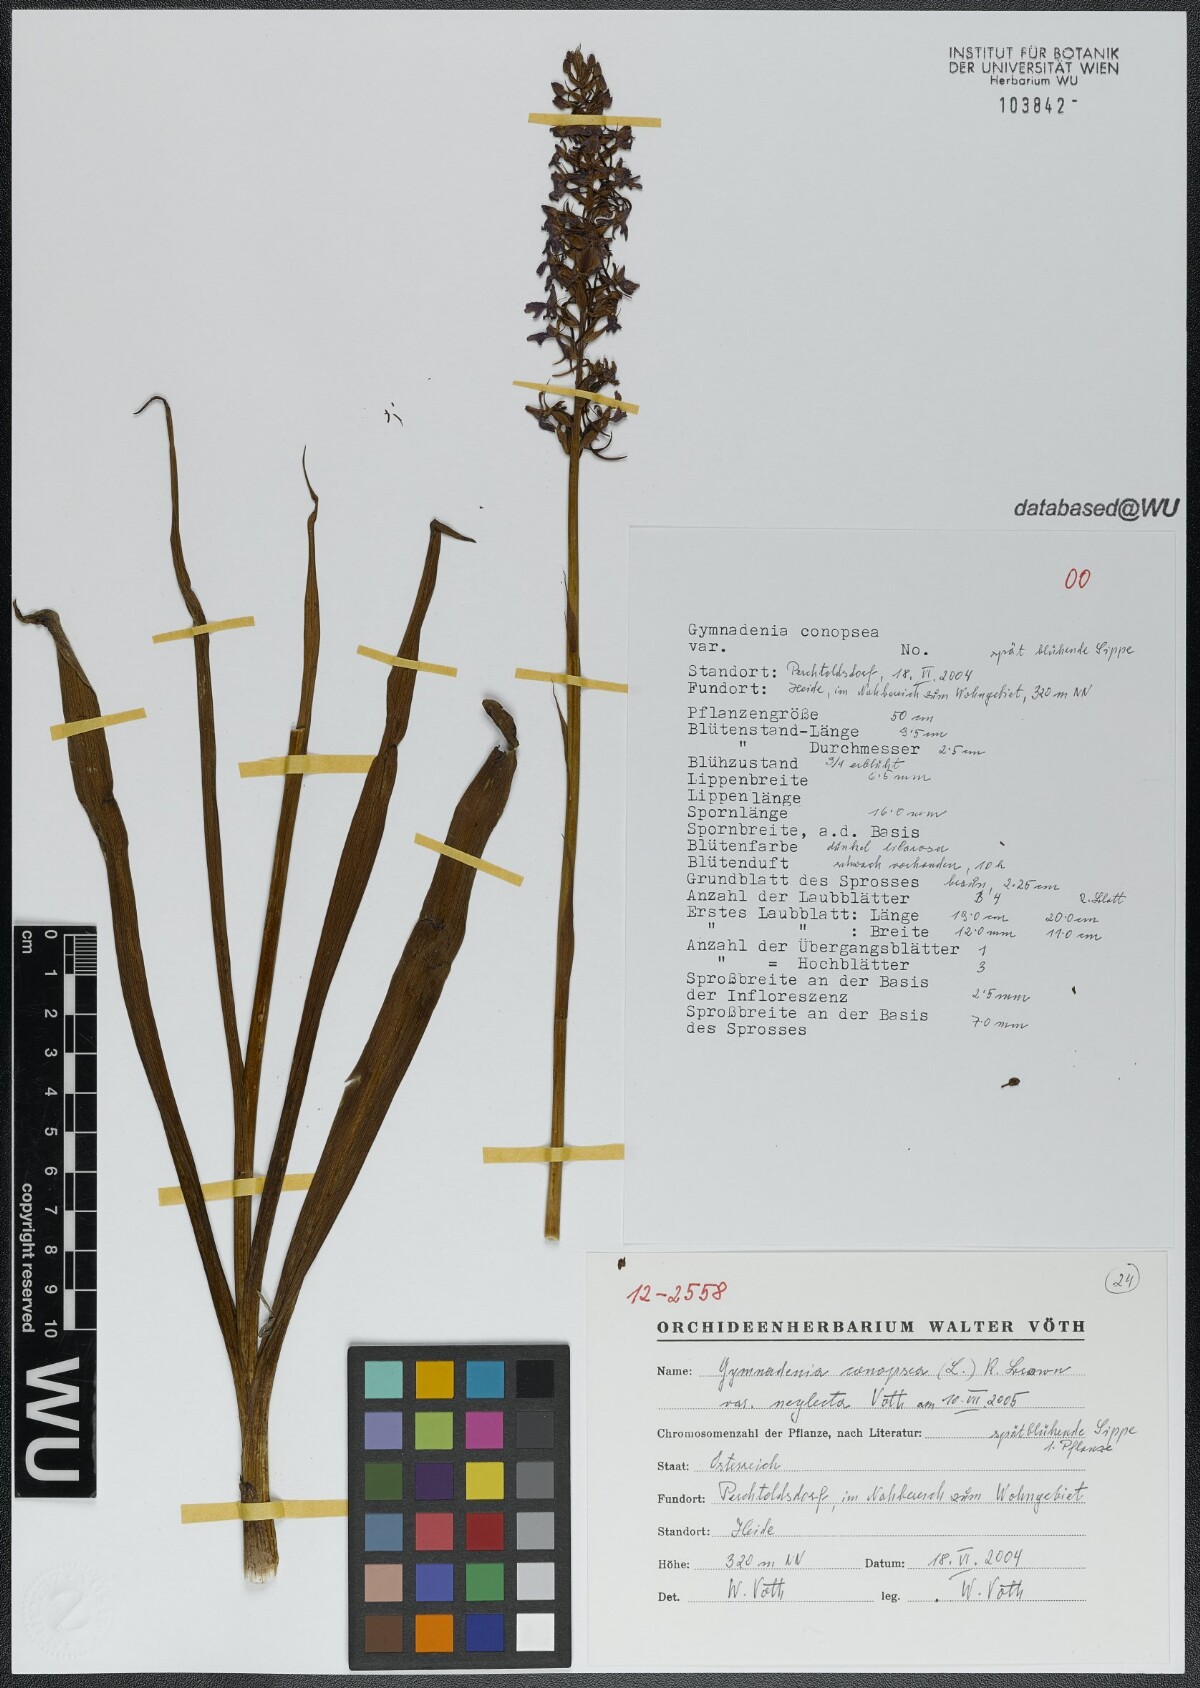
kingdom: Plantae
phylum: Tracheophyta
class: Liliopsida
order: Asparagales
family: Orchidaceae
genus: Gymnadenia
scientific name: Gymnadenia conopsea
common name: Fragrant orchid
